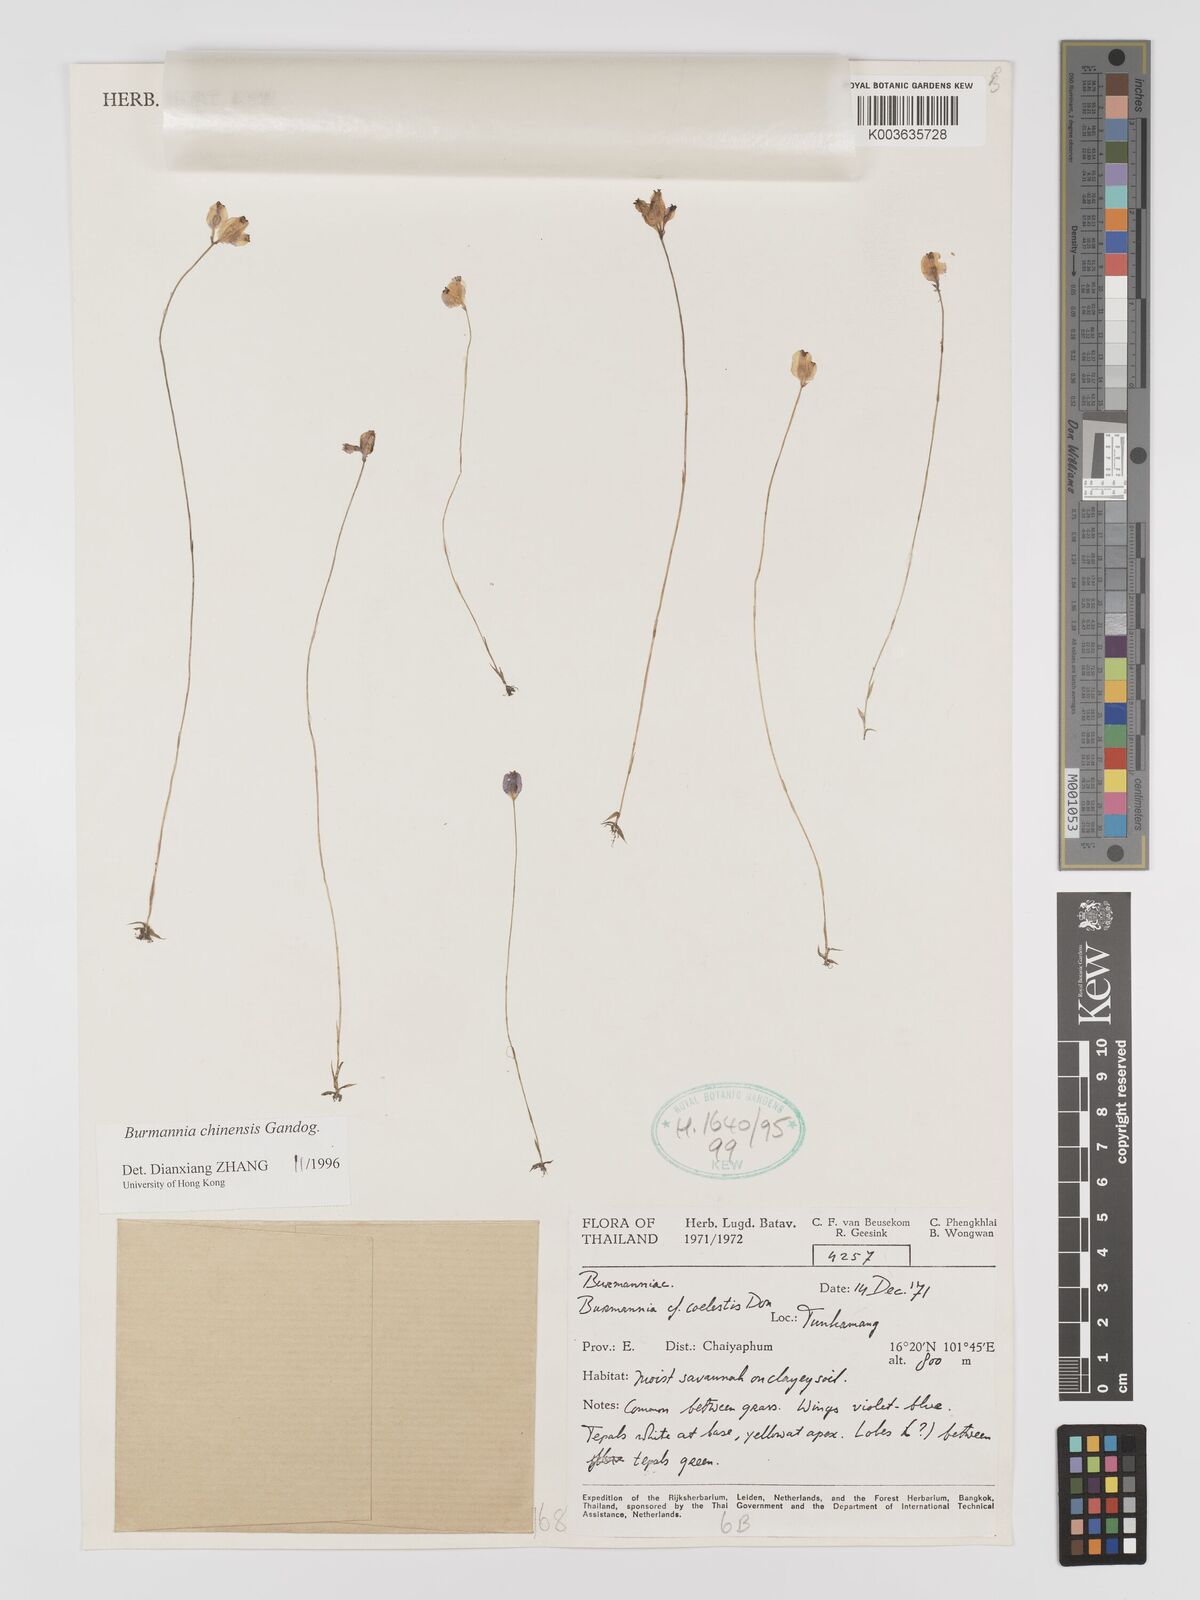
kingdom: Plantae
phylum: Tracheophyta
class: Liliopsida
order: Dioscoreales
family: Burmanniaceae
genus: Burmannia
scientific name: Burmannia coelestis
